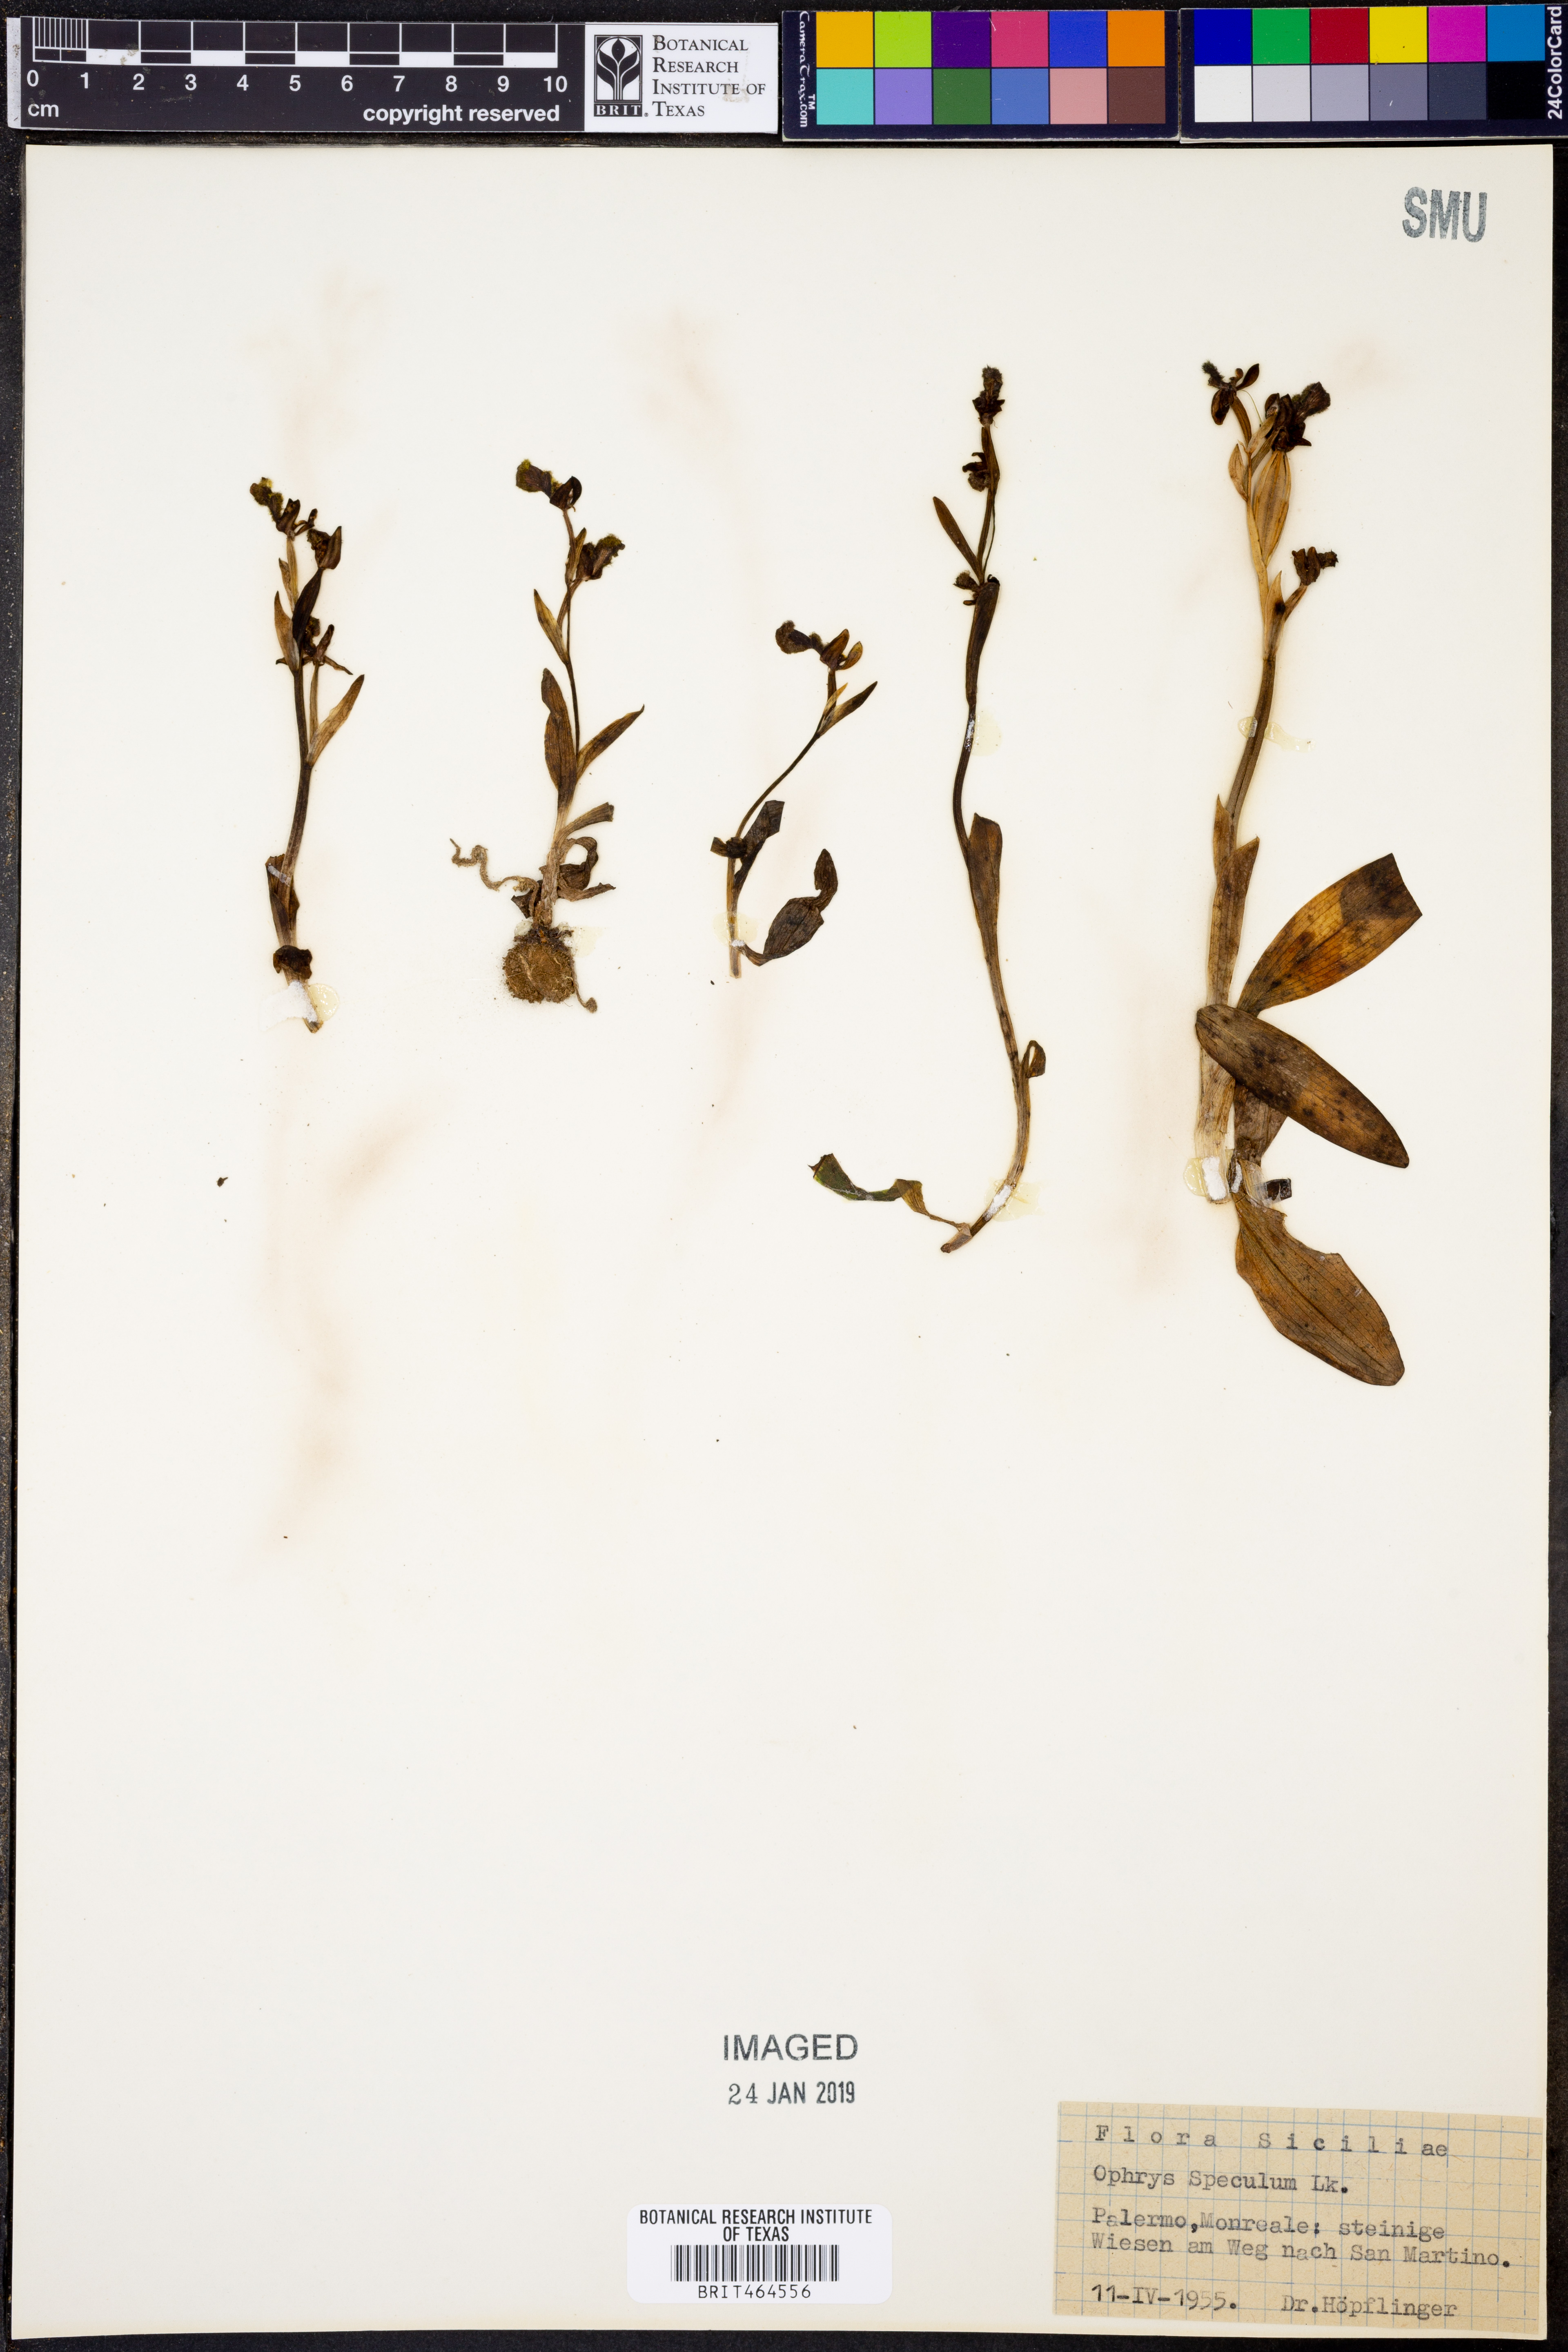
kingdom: Plantae
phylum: Tracheophyta
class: Liliopsida
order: Asparagales
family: Orchidaceae
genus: Ophrys
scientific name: Ophrys speculum
